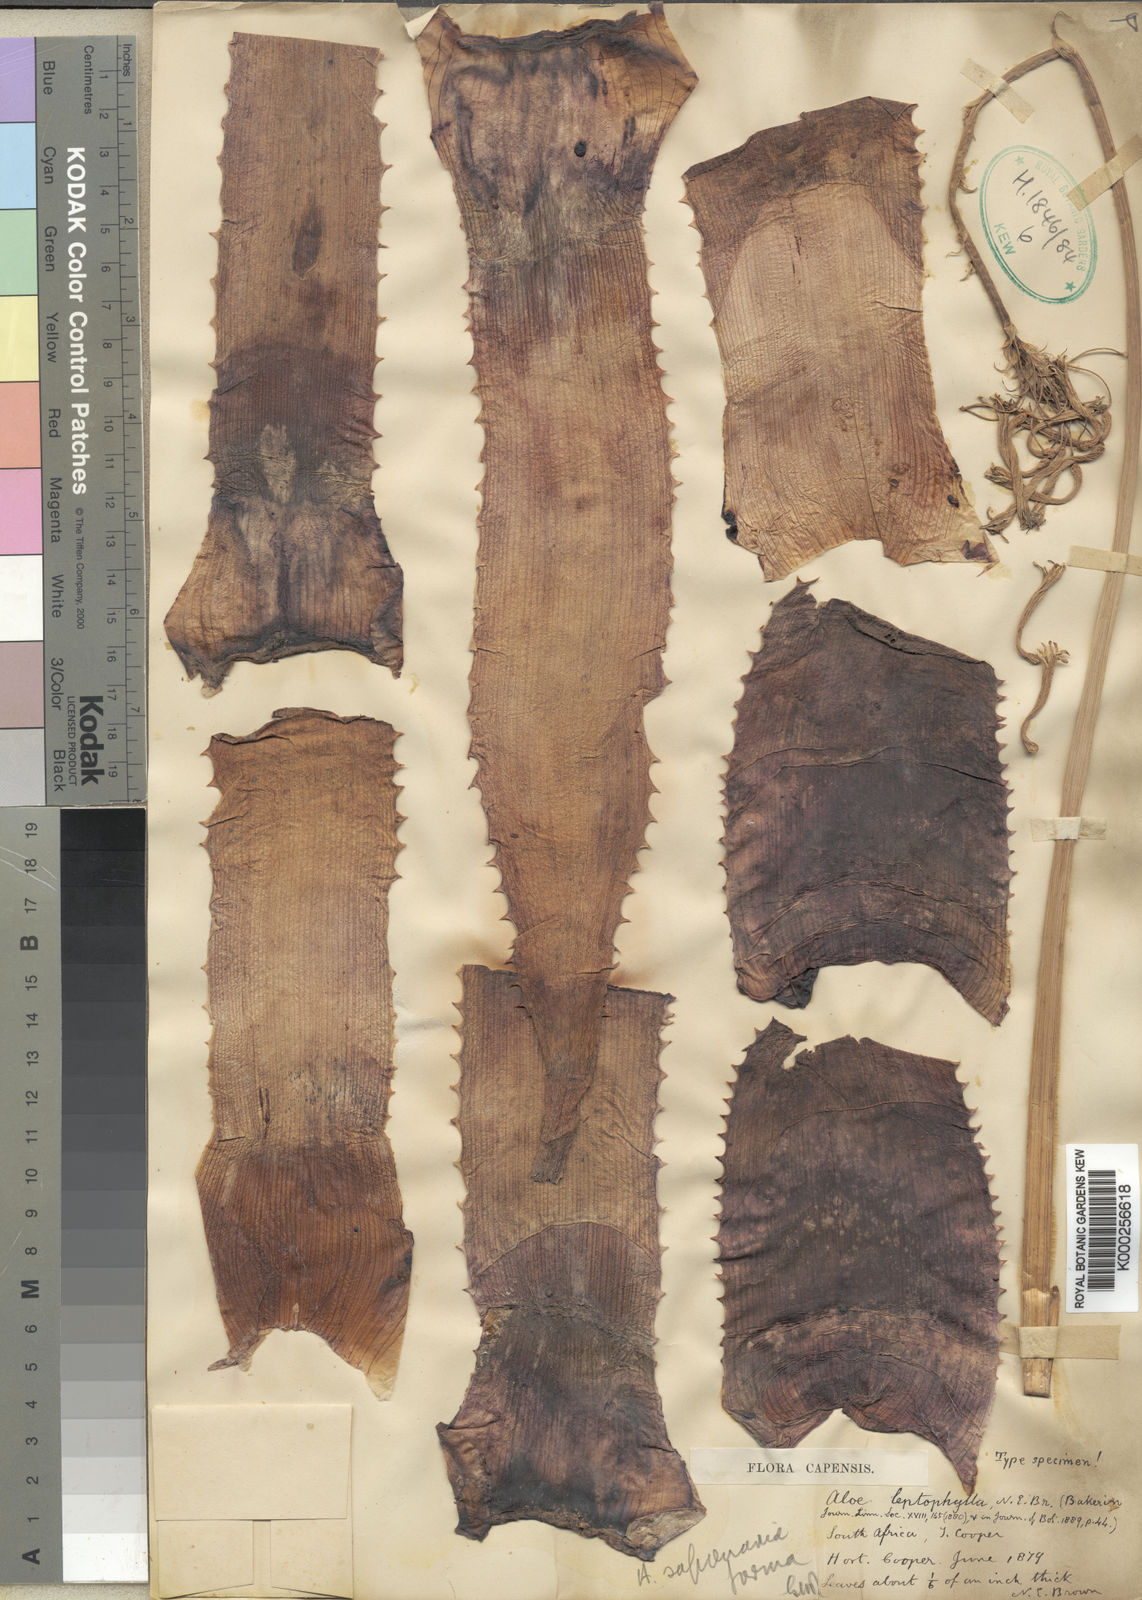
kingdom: Plantae
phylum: Tracheophyta
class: Liliopsida
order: Asparagales
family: Asphodelaceae
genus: Aloe
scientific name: Aloe microstigma
